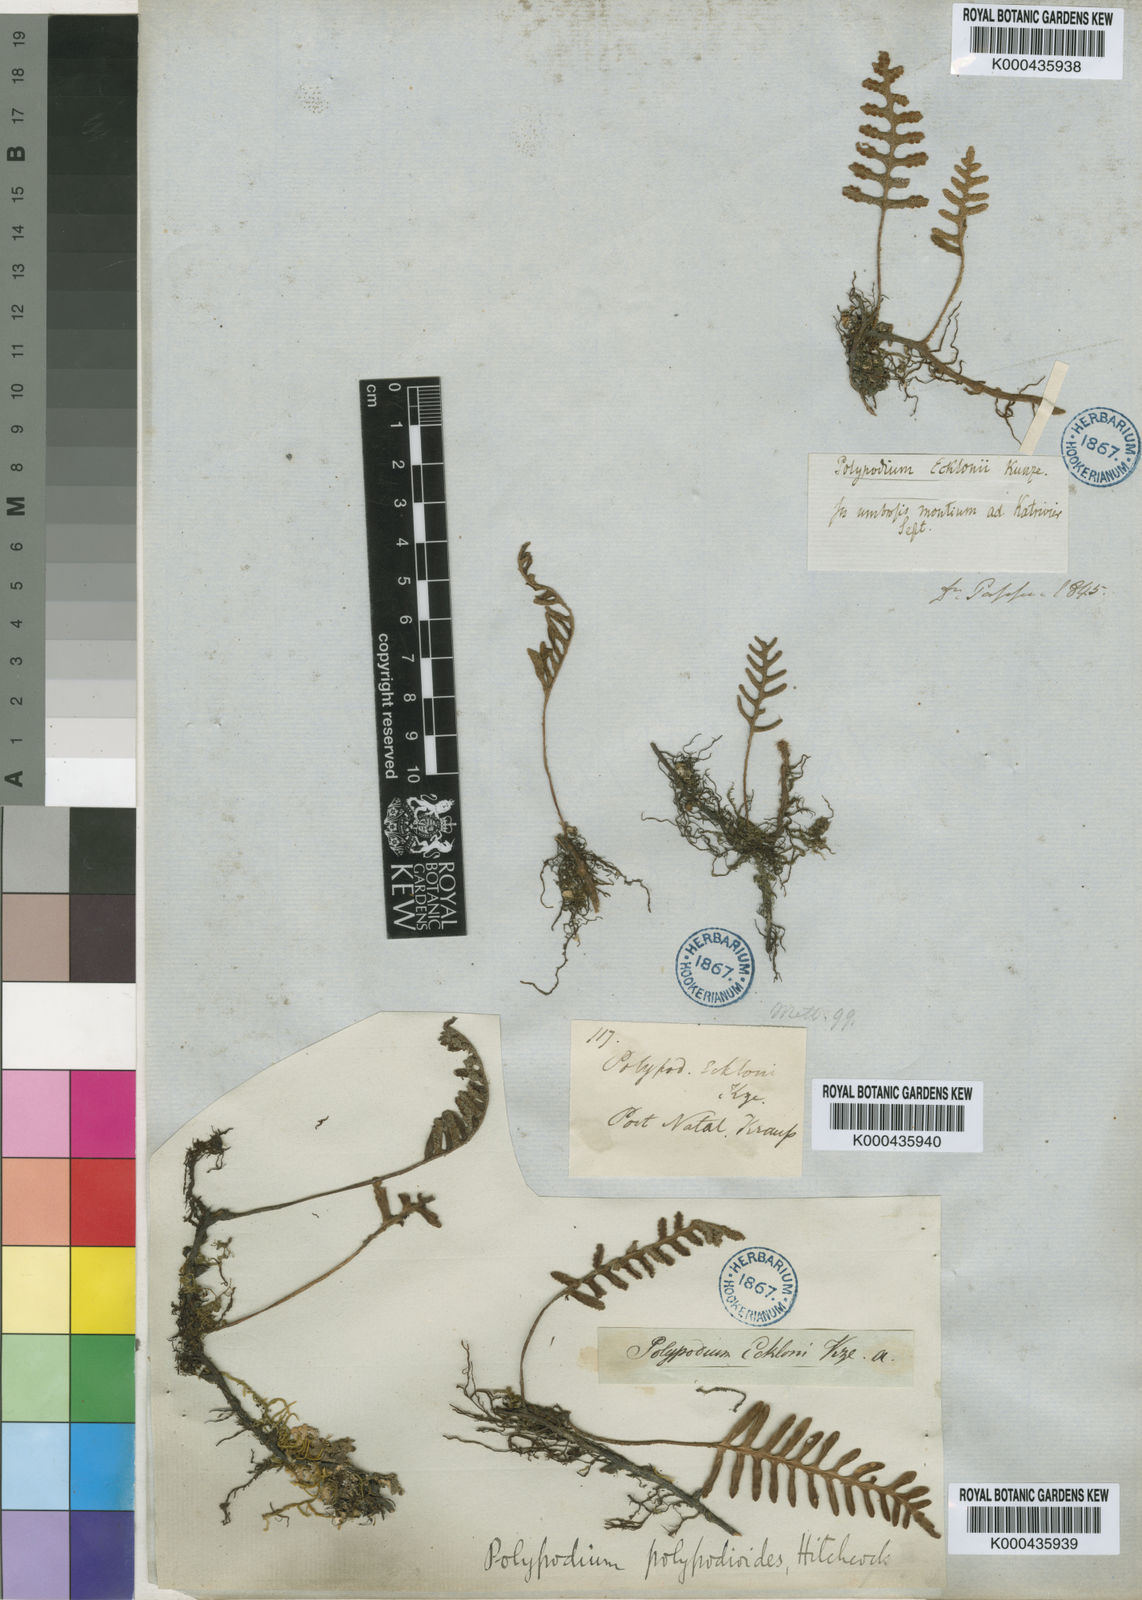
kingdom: Plantae
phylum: Tracheophyta
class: Polypodiopsida
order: Polypodiales
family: Polypodiaceae
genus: Pleopeltis
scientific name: Pleopeltis ecklonii
